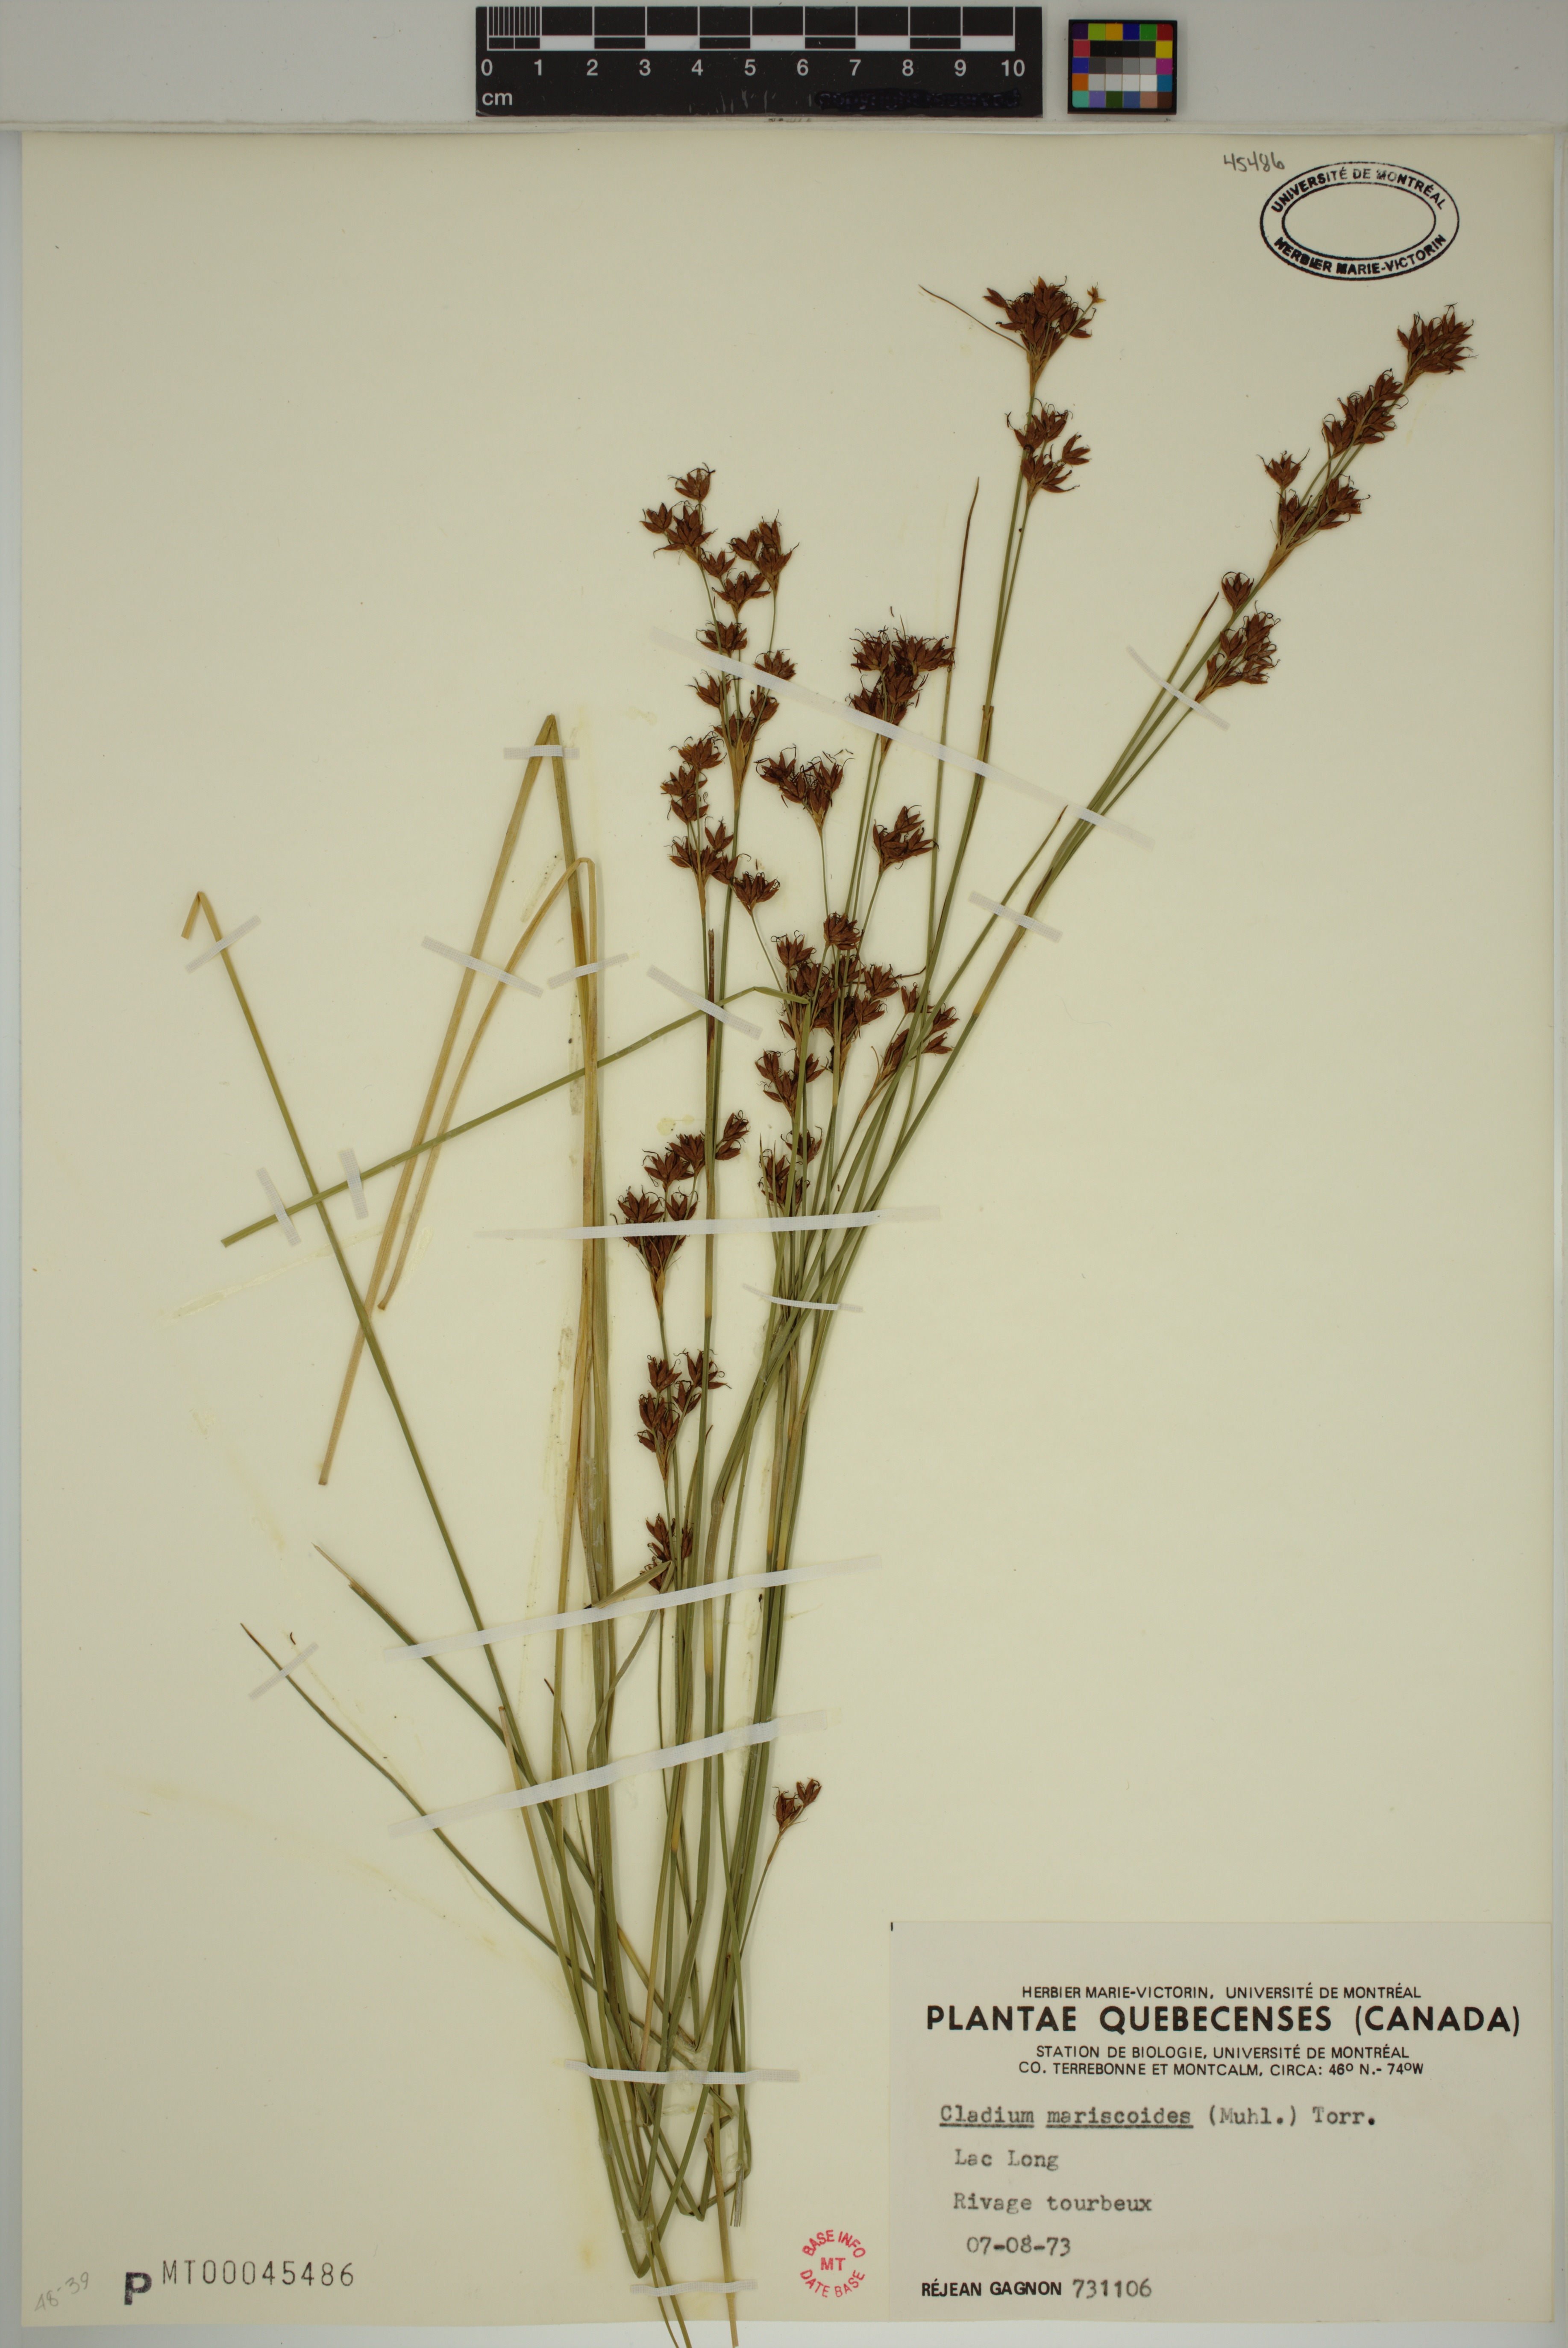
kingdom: Plantae
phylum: Tracheophyta
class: Liliopsida
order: Poales
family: Cyperaceae
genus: Cladium
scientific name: Cladium mariscoides
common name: Smooth sawgrass
